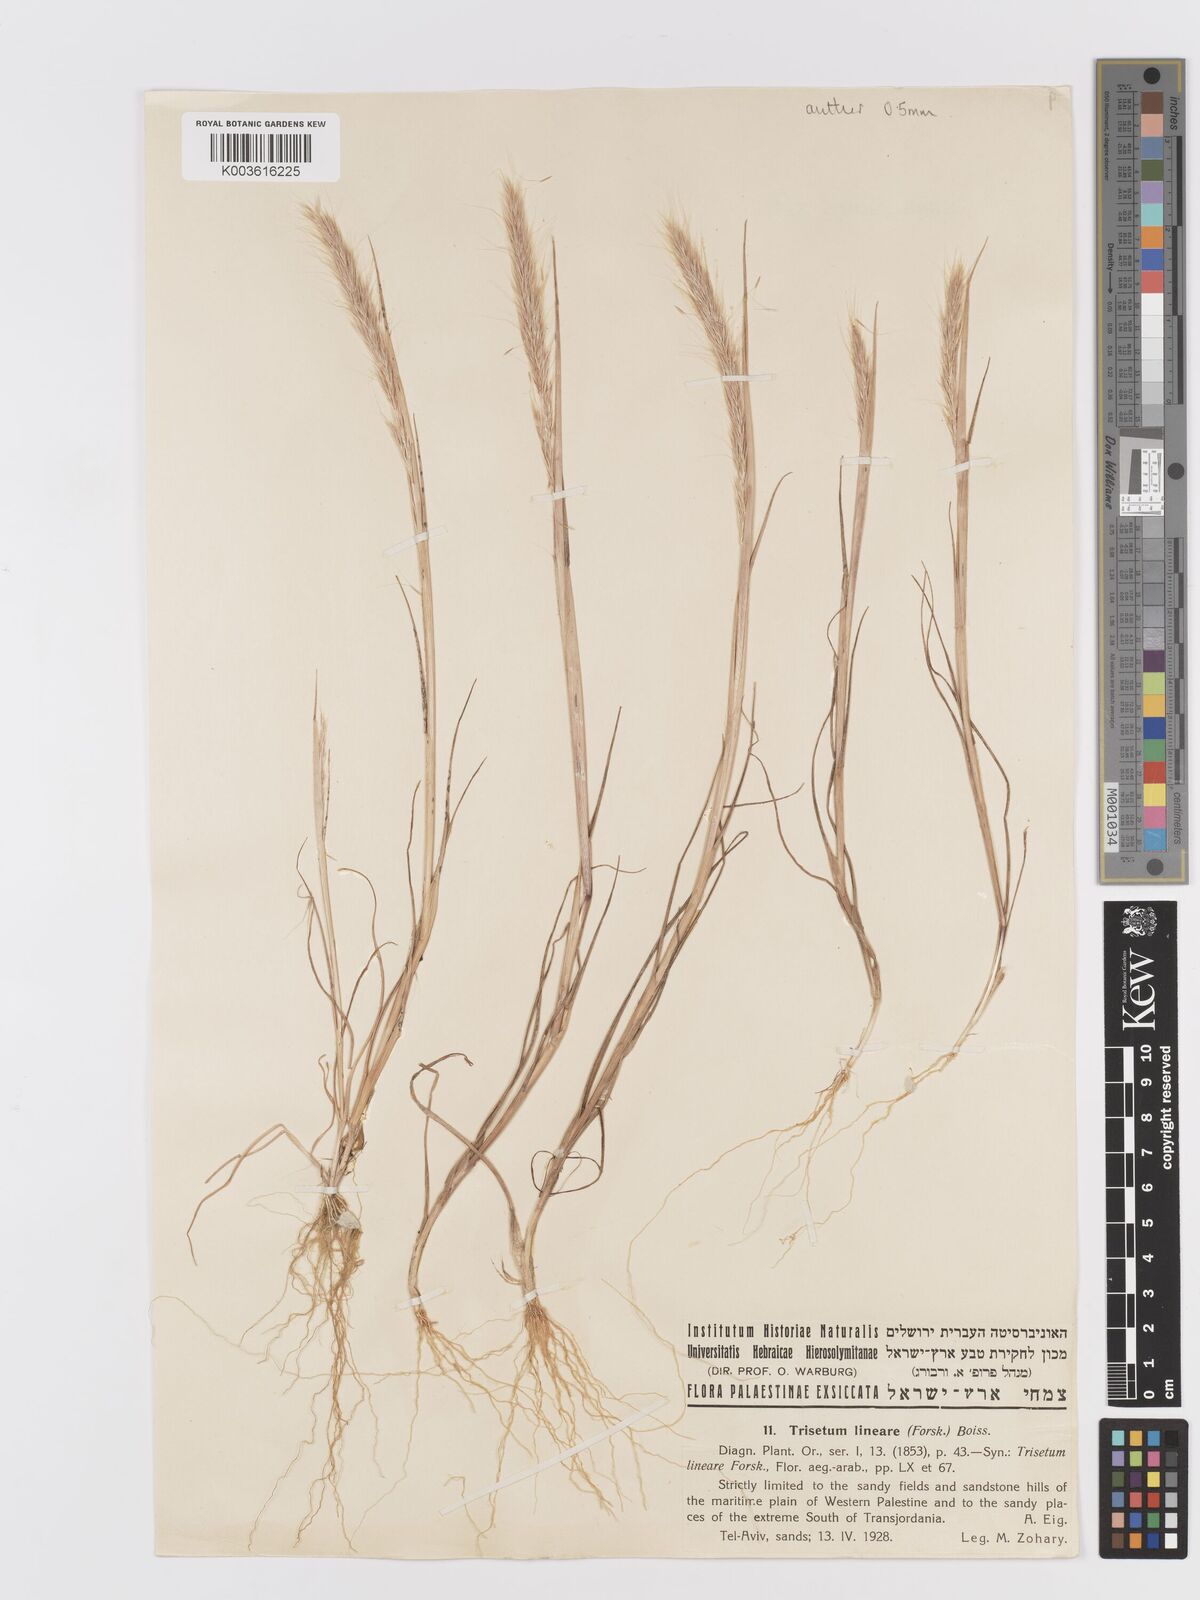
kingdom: Plantae
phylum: Tracheophyta
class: Liliopsida
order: Poales
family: Poaceae
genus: Trisetaria
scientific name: Trisetaria linearis
